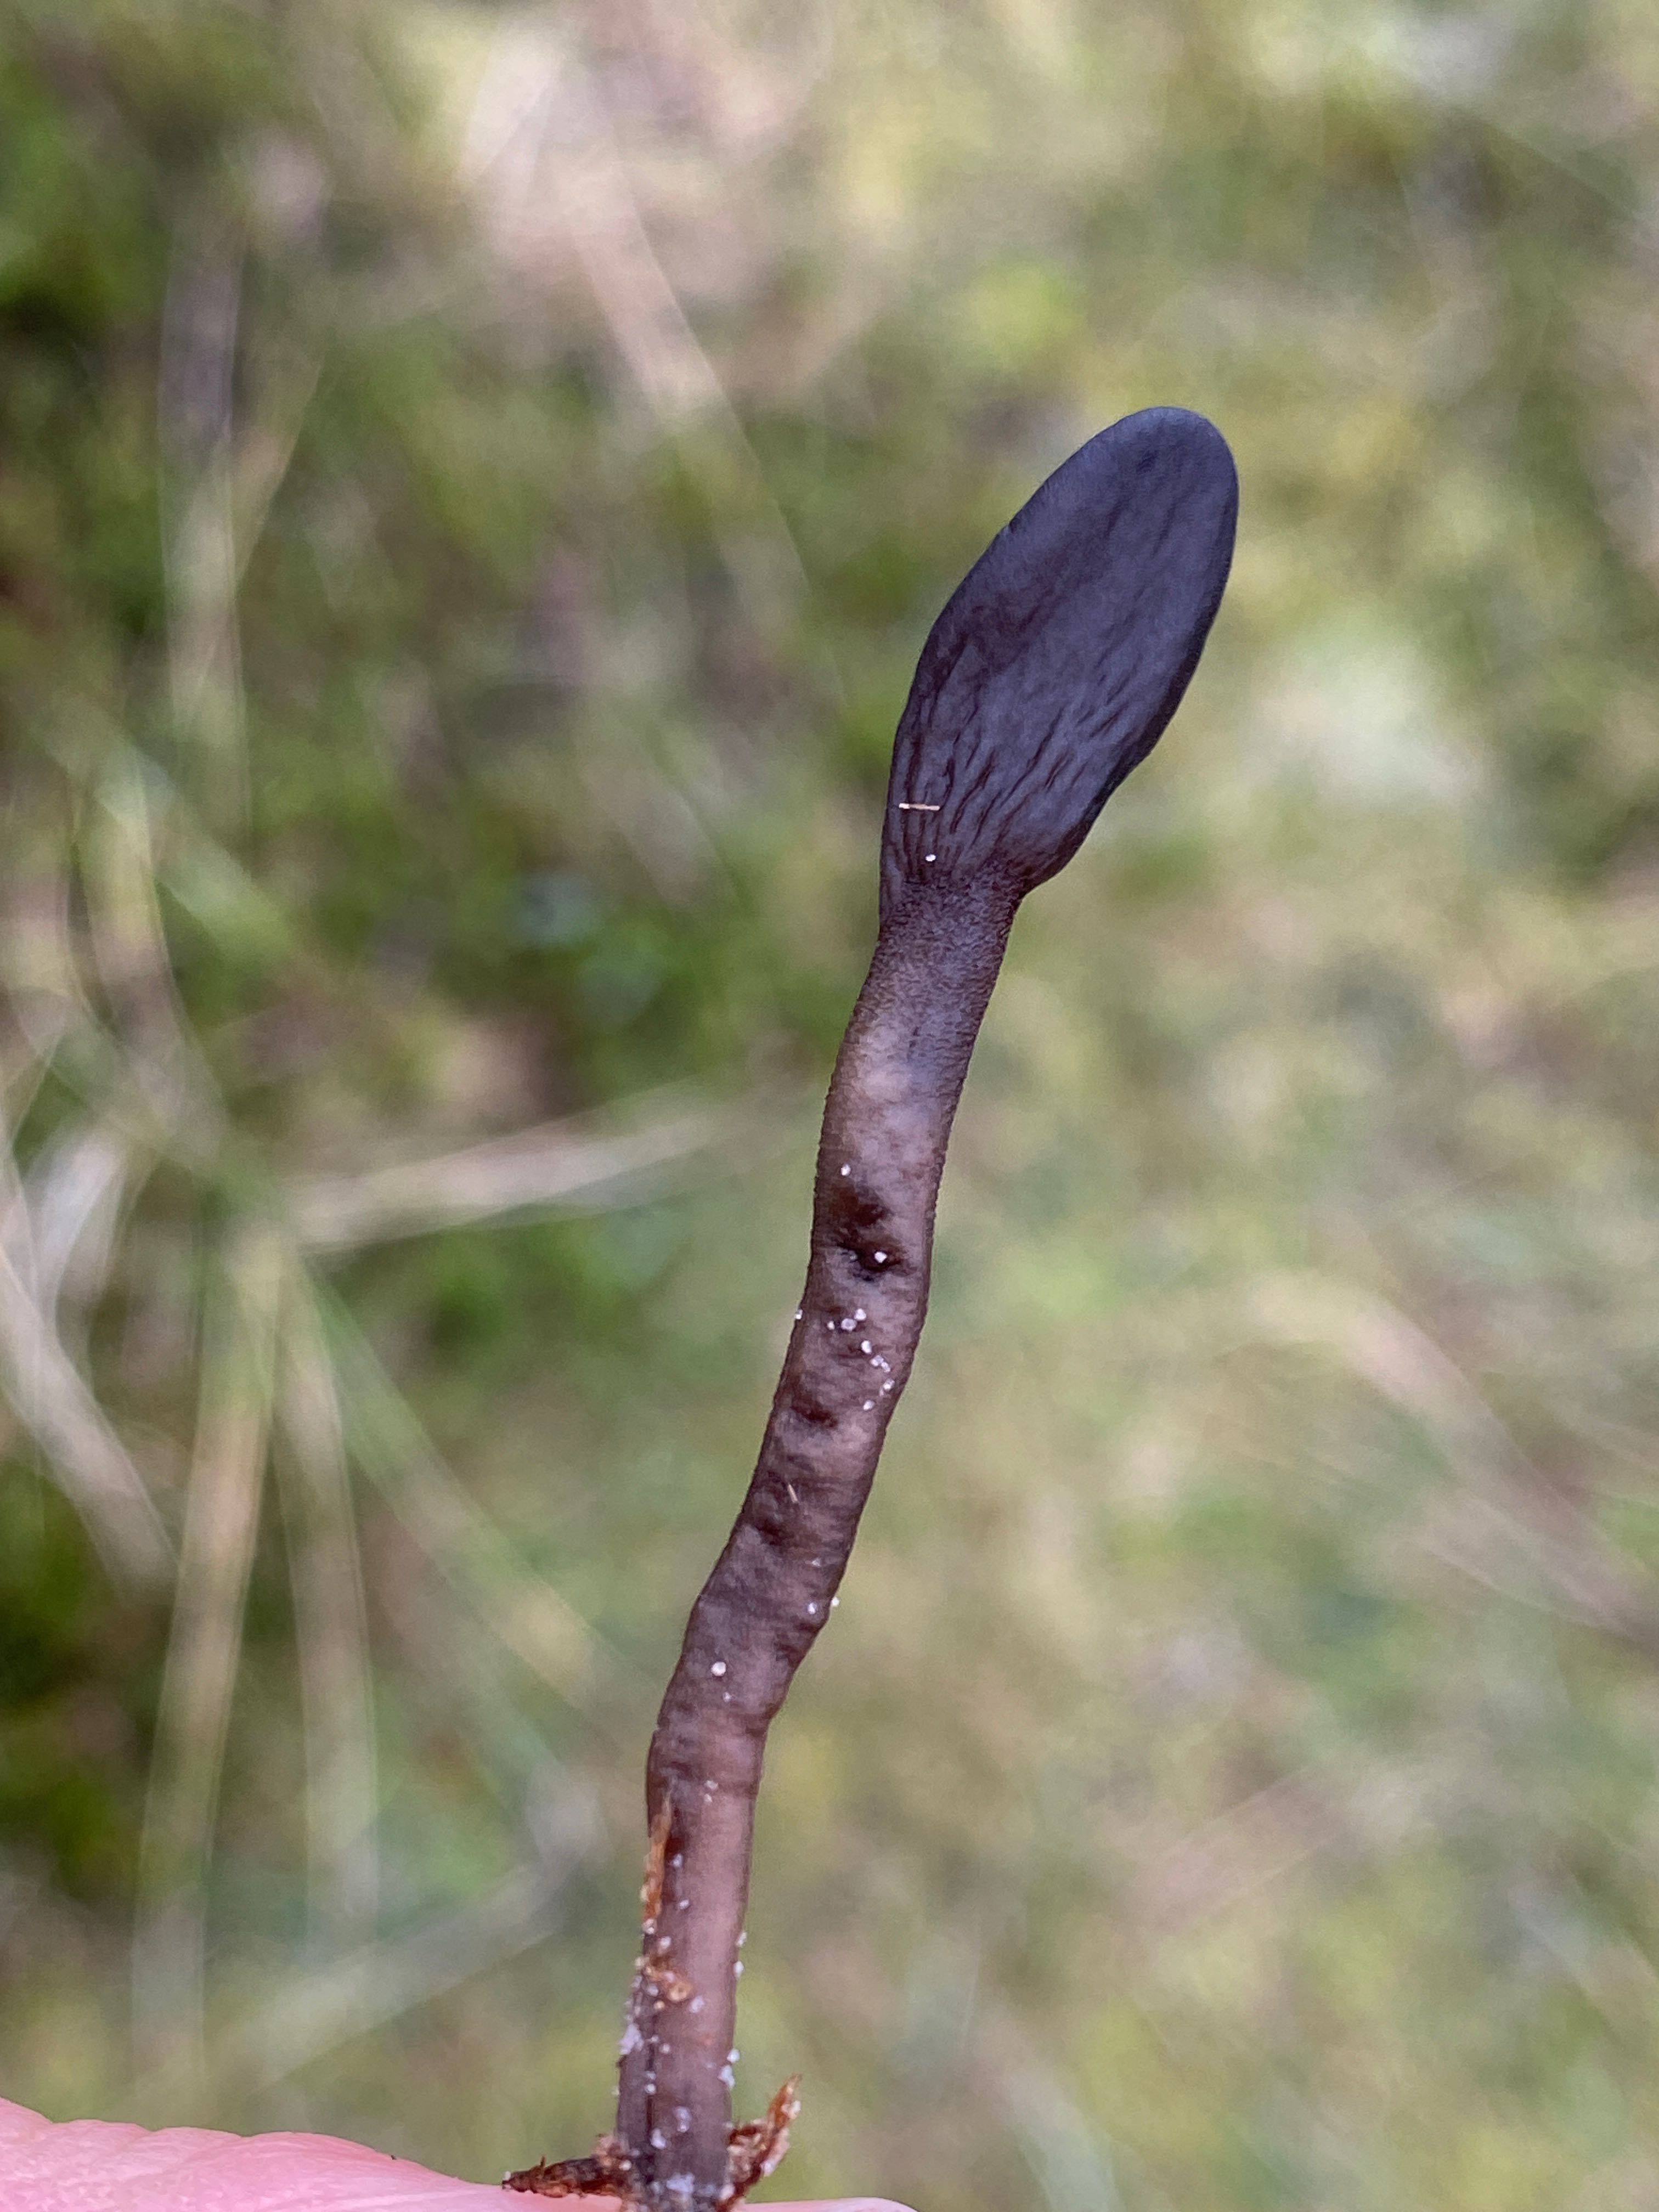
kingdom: Fungi
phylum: Ascomycota
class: Geoglossomycetes
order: Geoglossales
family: Geoglossaceae
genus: Geoglossum
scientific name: Geoglossum
